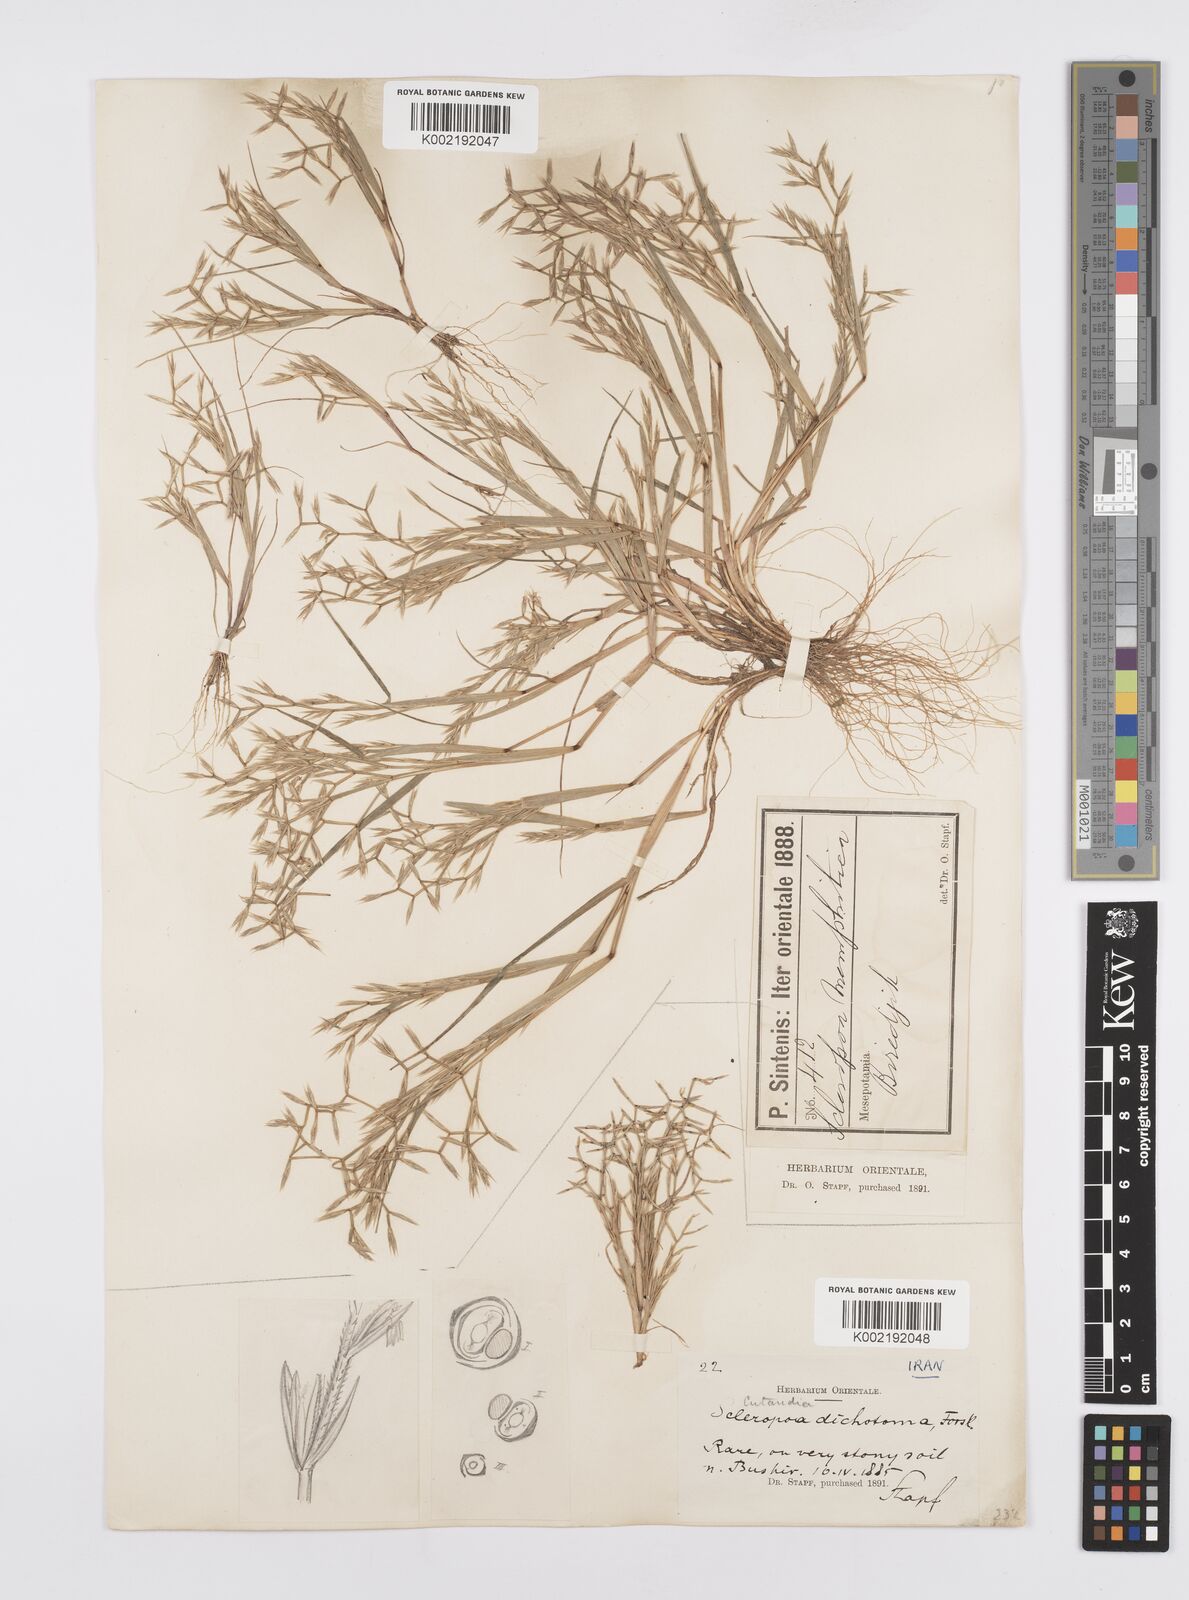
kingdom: Plantae
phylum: Tracheophyta
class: Liliopsida
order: Poales
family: Poaceae
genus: Cutandia
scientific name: Cutandia memphitica
